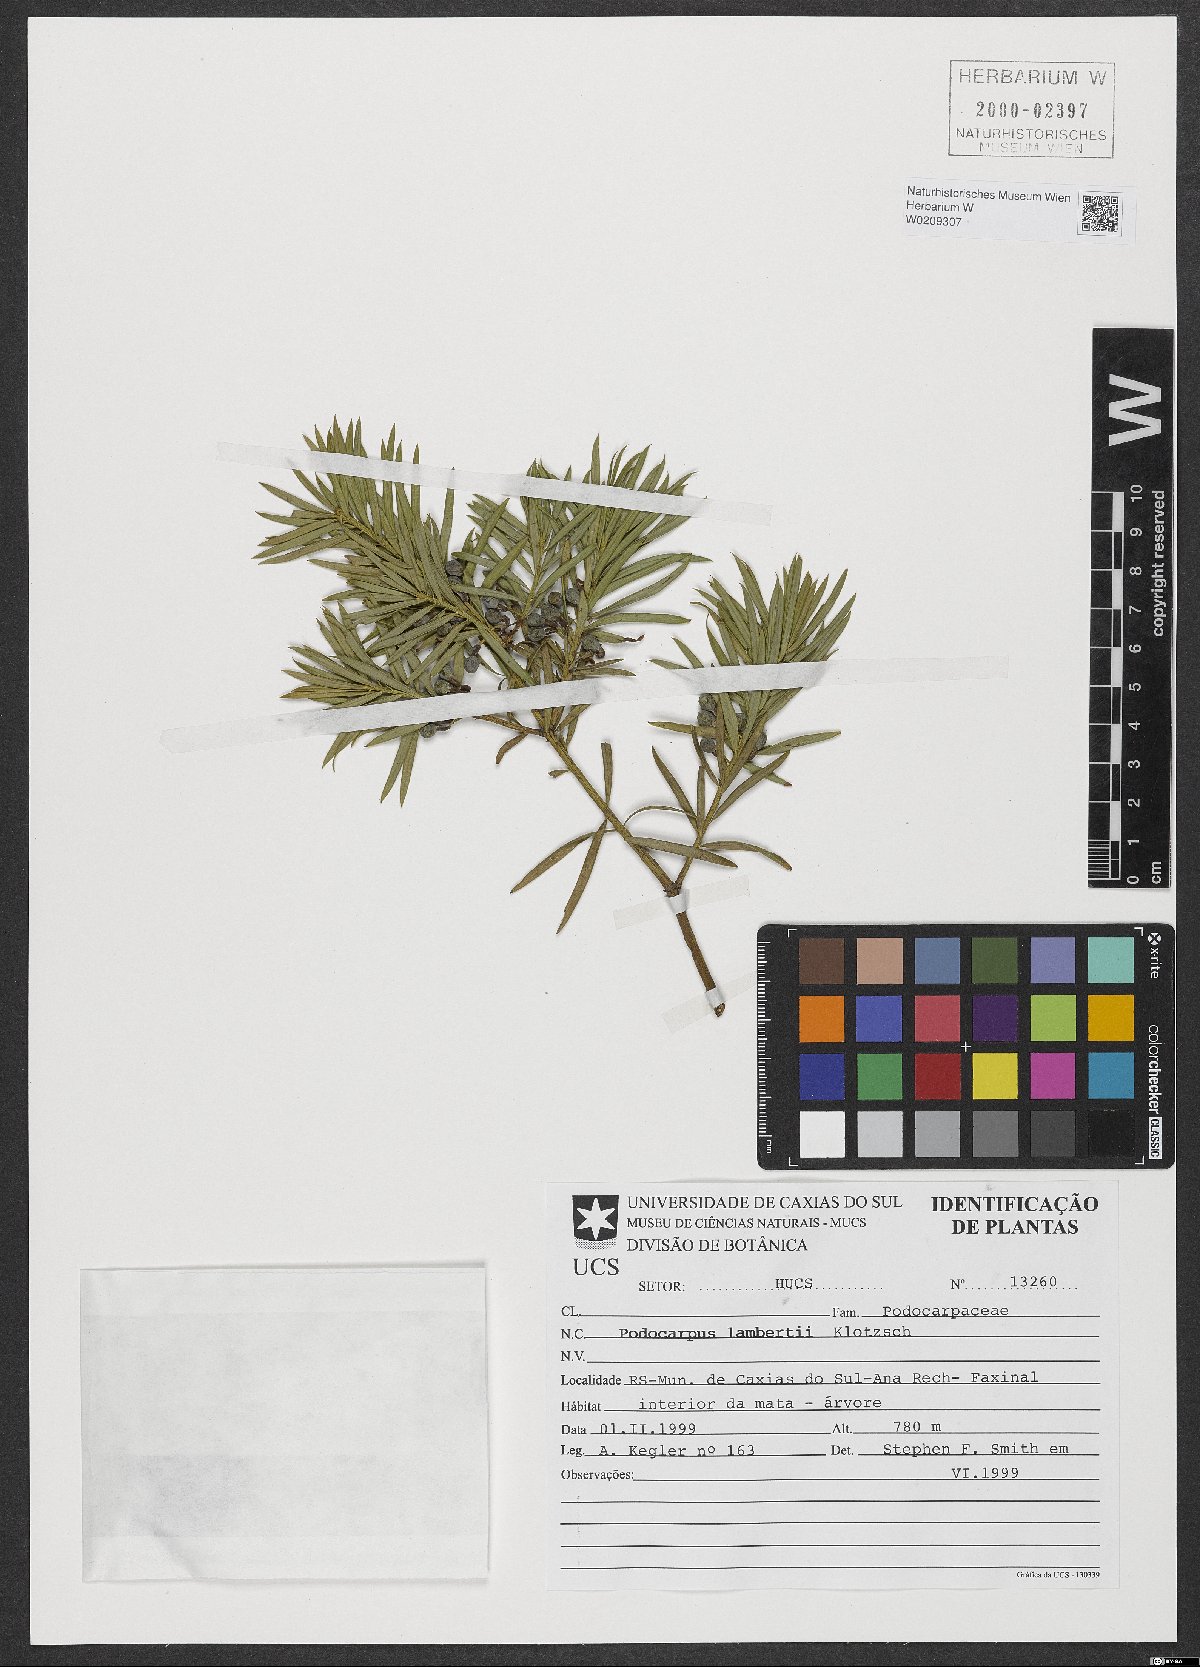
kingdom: Plantae
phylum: Tracheophyta
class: Pinopsida
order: Pinales
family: Podocarpaceae
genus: Podocarpus
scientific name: Podocarpus lambertii
